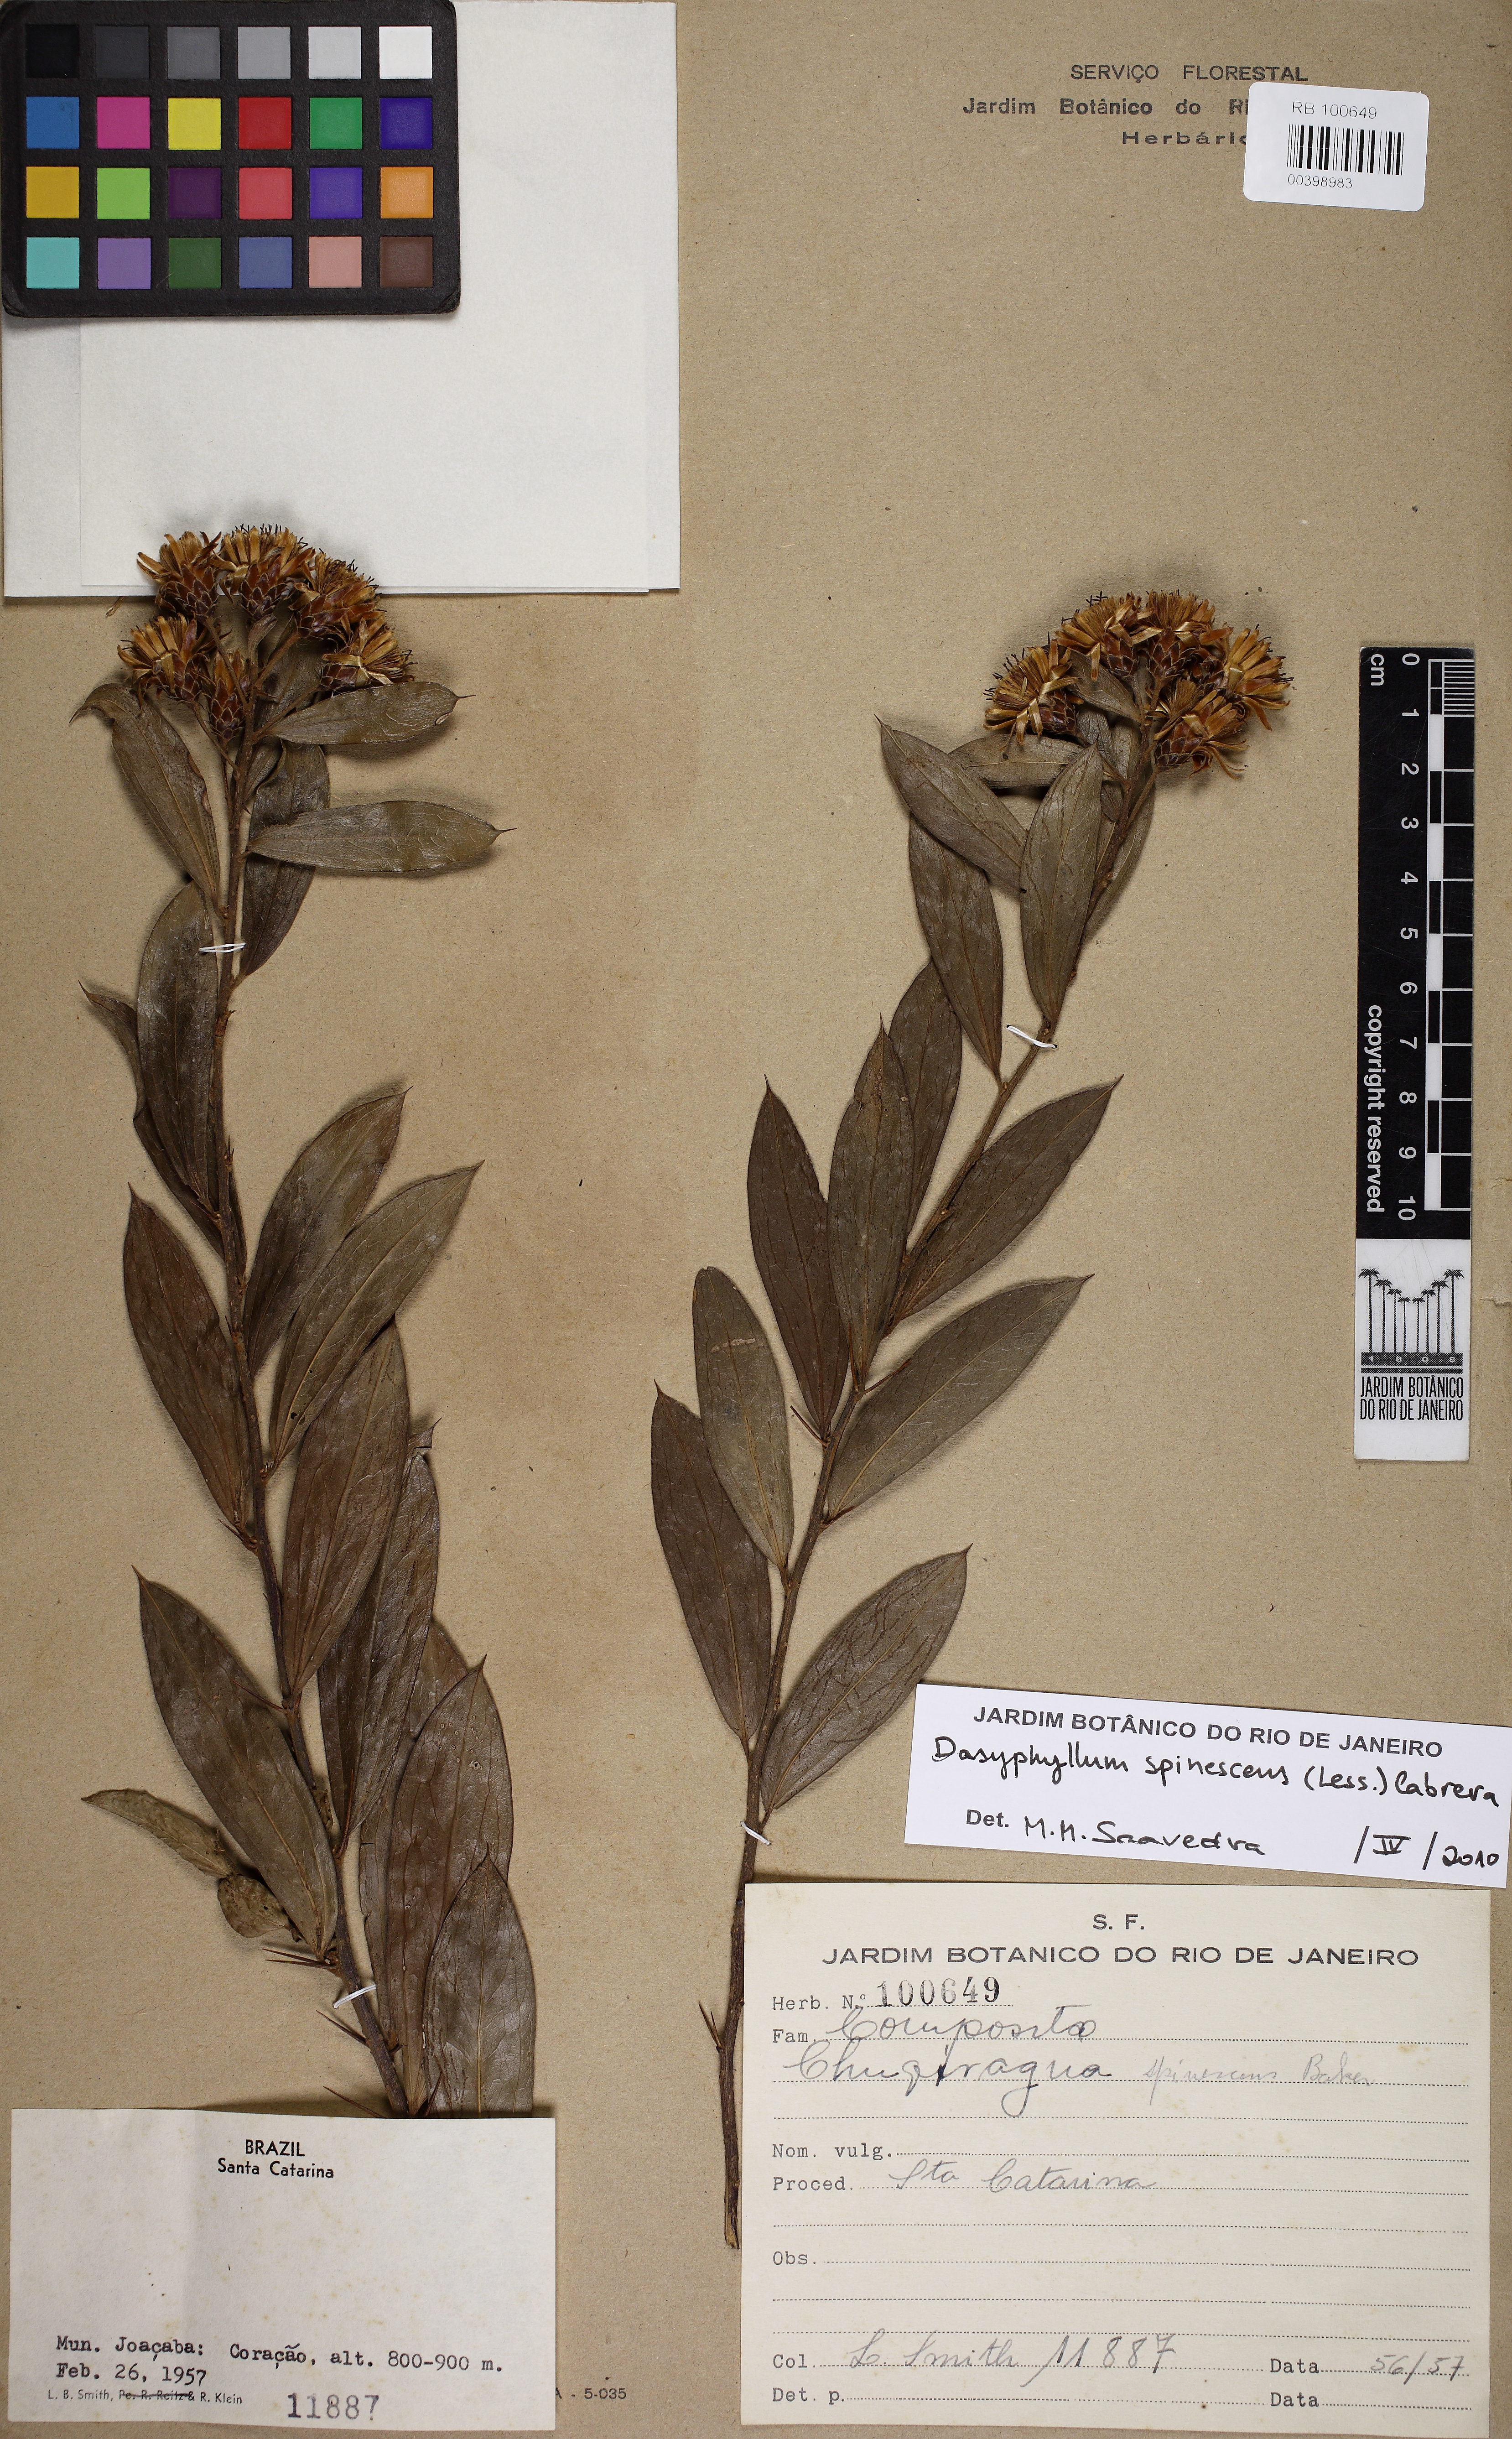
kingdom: Plantae
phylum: Tracheophyta
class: Magnoliopsida
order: Asterales
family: Asteraceae
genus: Dasyphyllum
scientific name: Dasyphyllum spinescens
